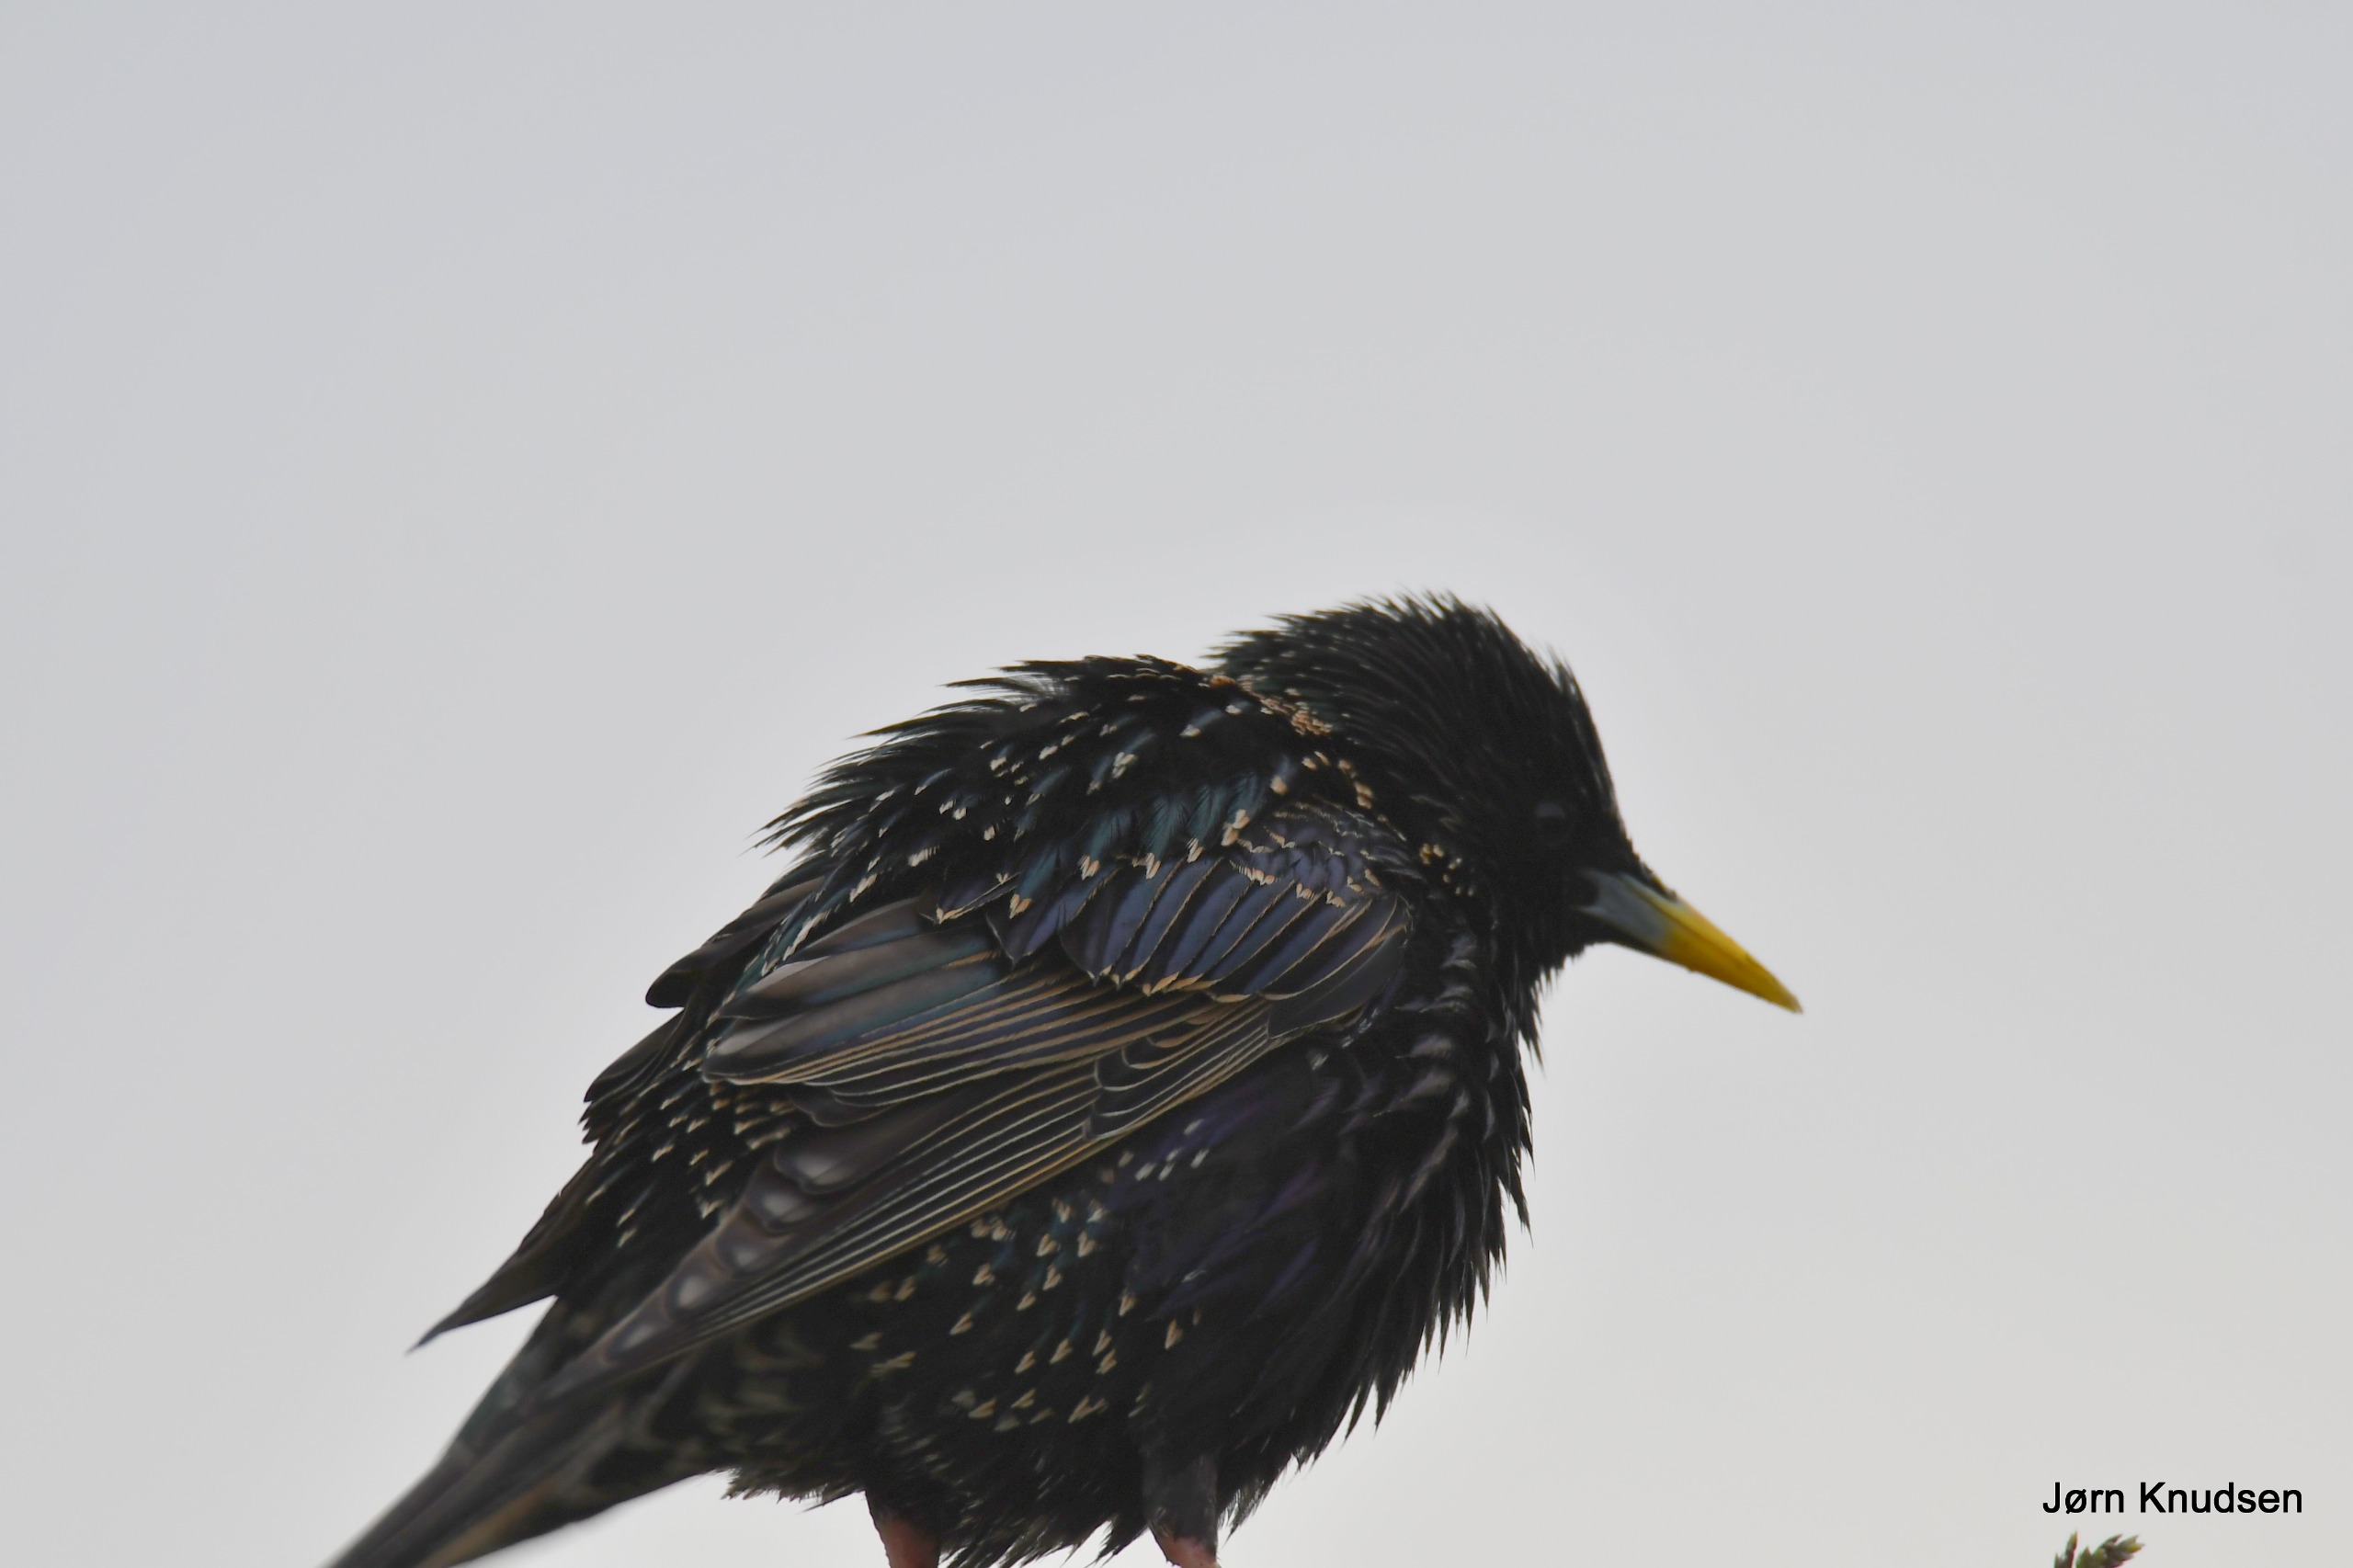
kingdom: Animalia
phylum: Chordata
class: Aves
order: Passeriformes
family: Sturnidae
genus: Sturnus
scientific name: Sturnus vulgaris
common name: Stær
